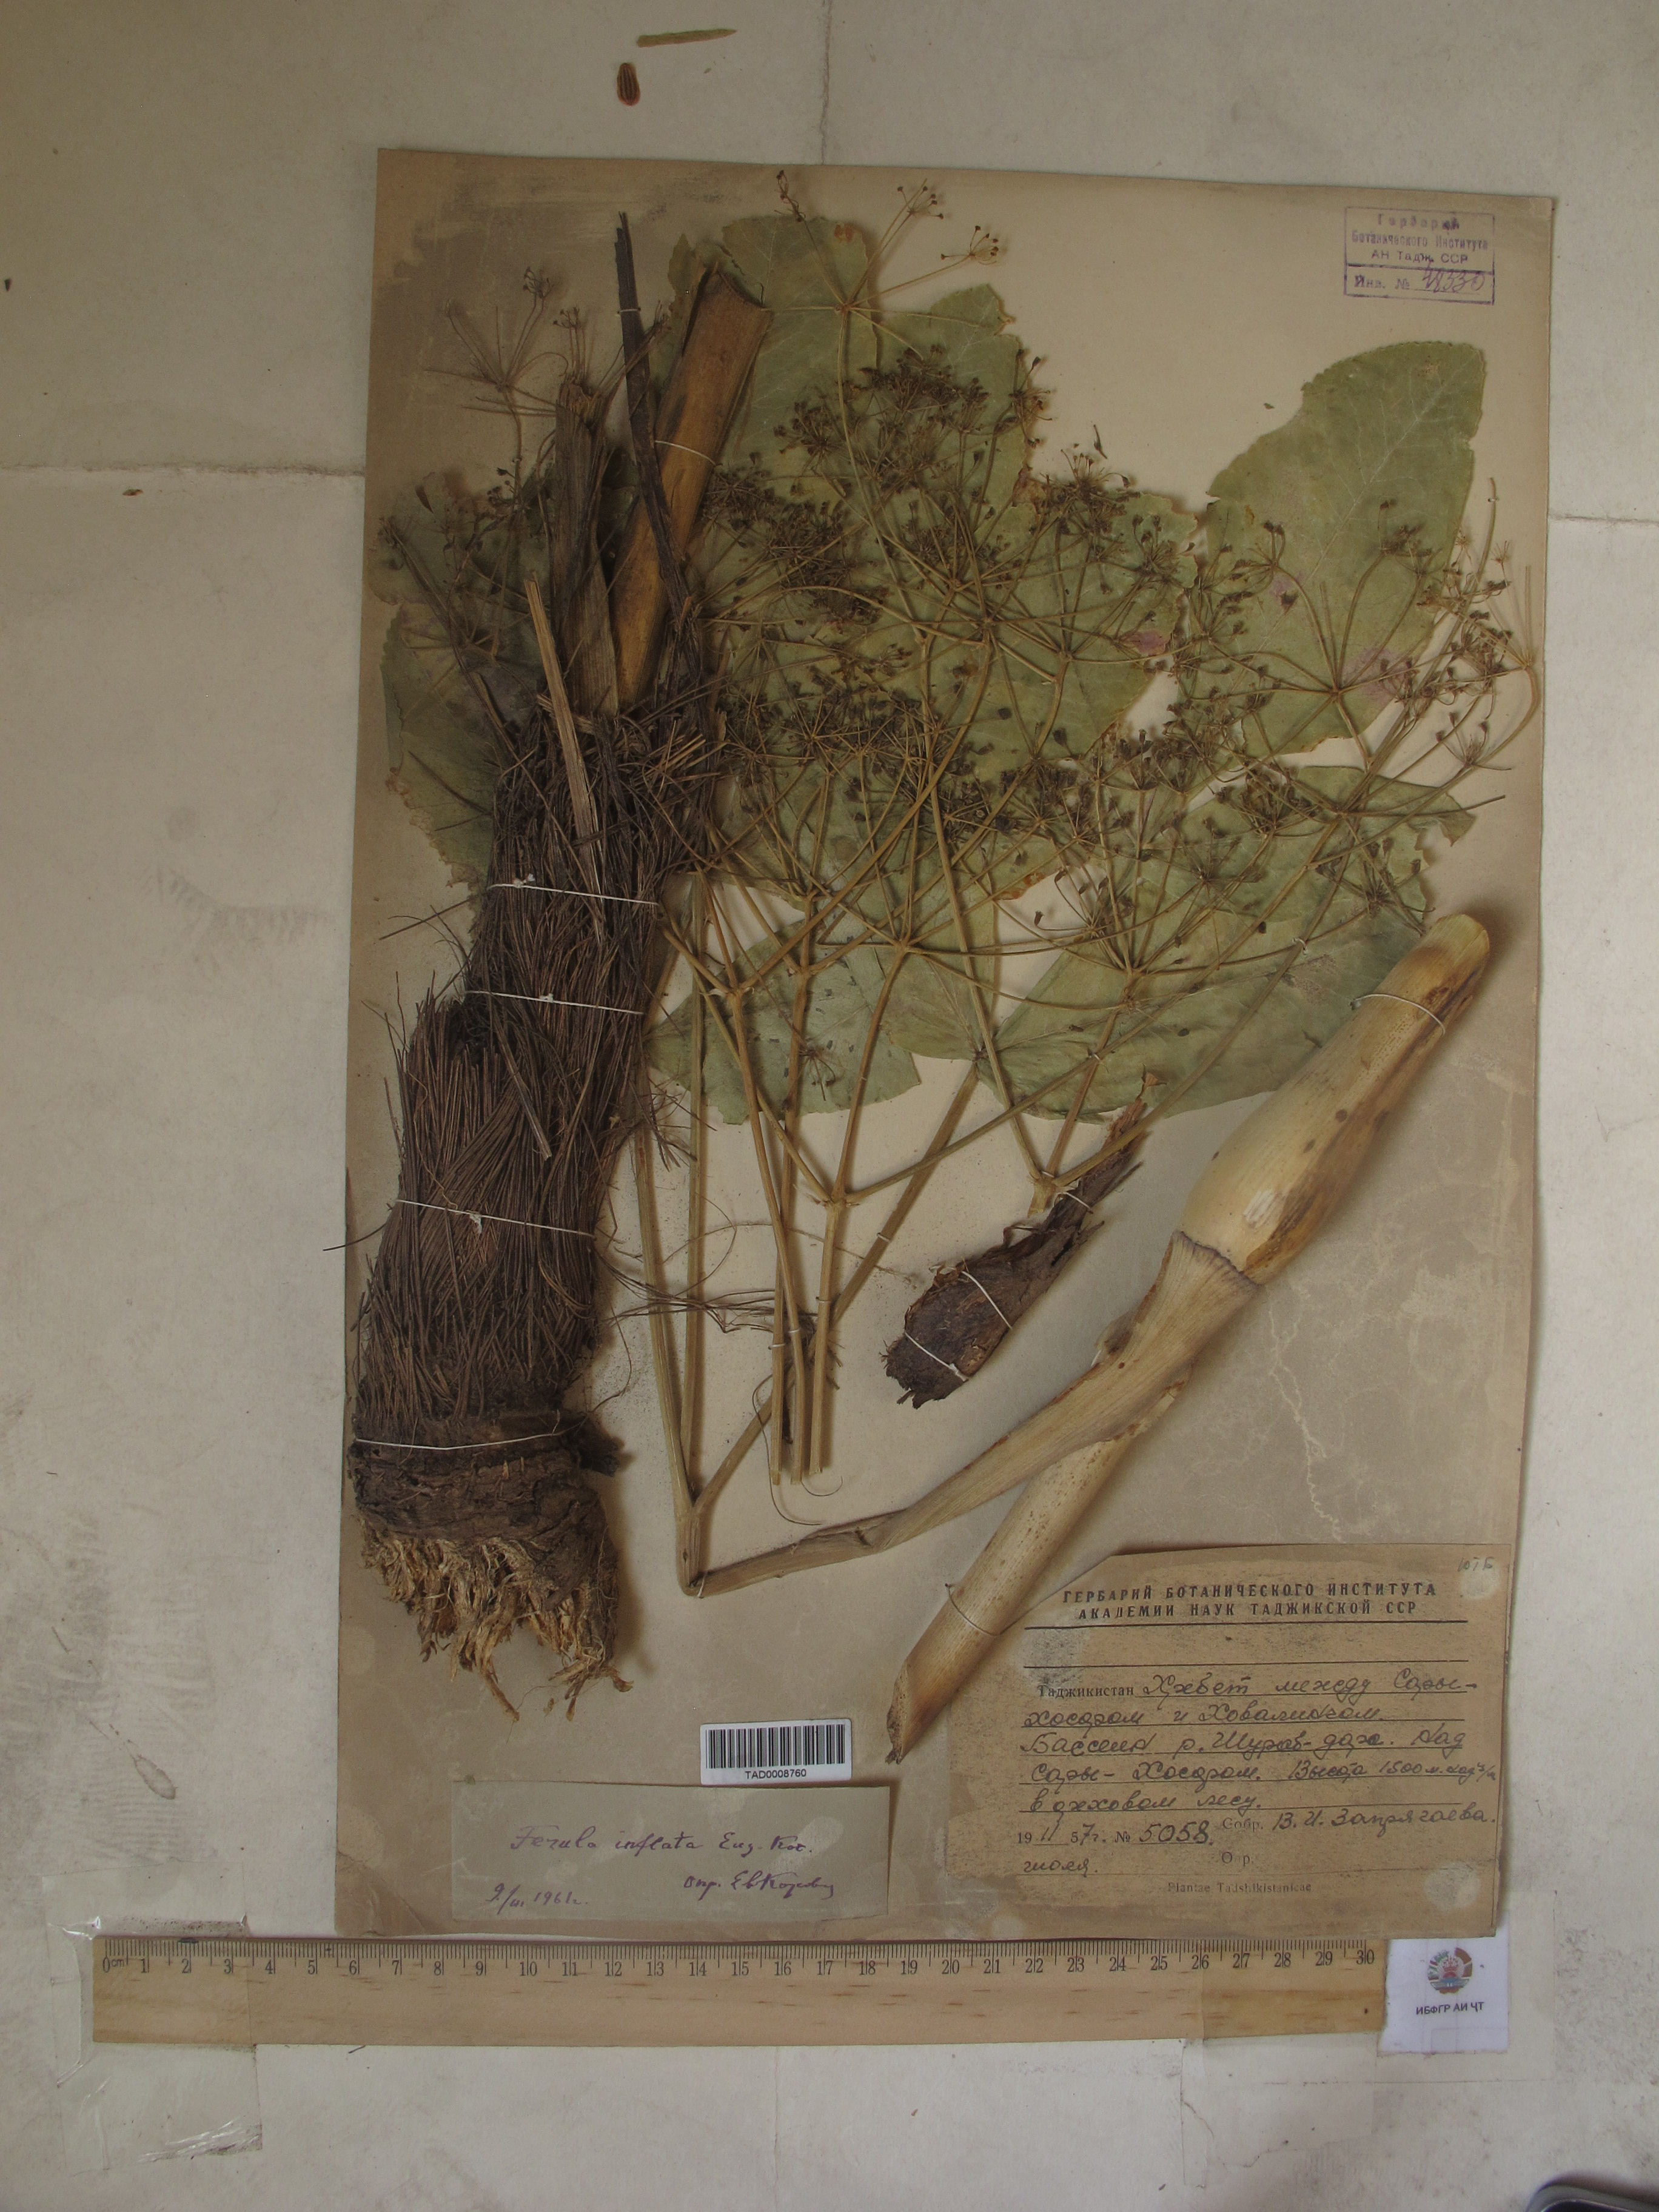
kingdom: Plantae
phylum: Tracheophyta
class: Magnoliopsida
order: Apiales
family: Apiaceae
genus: Ferula
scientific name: Ferula gigantea
